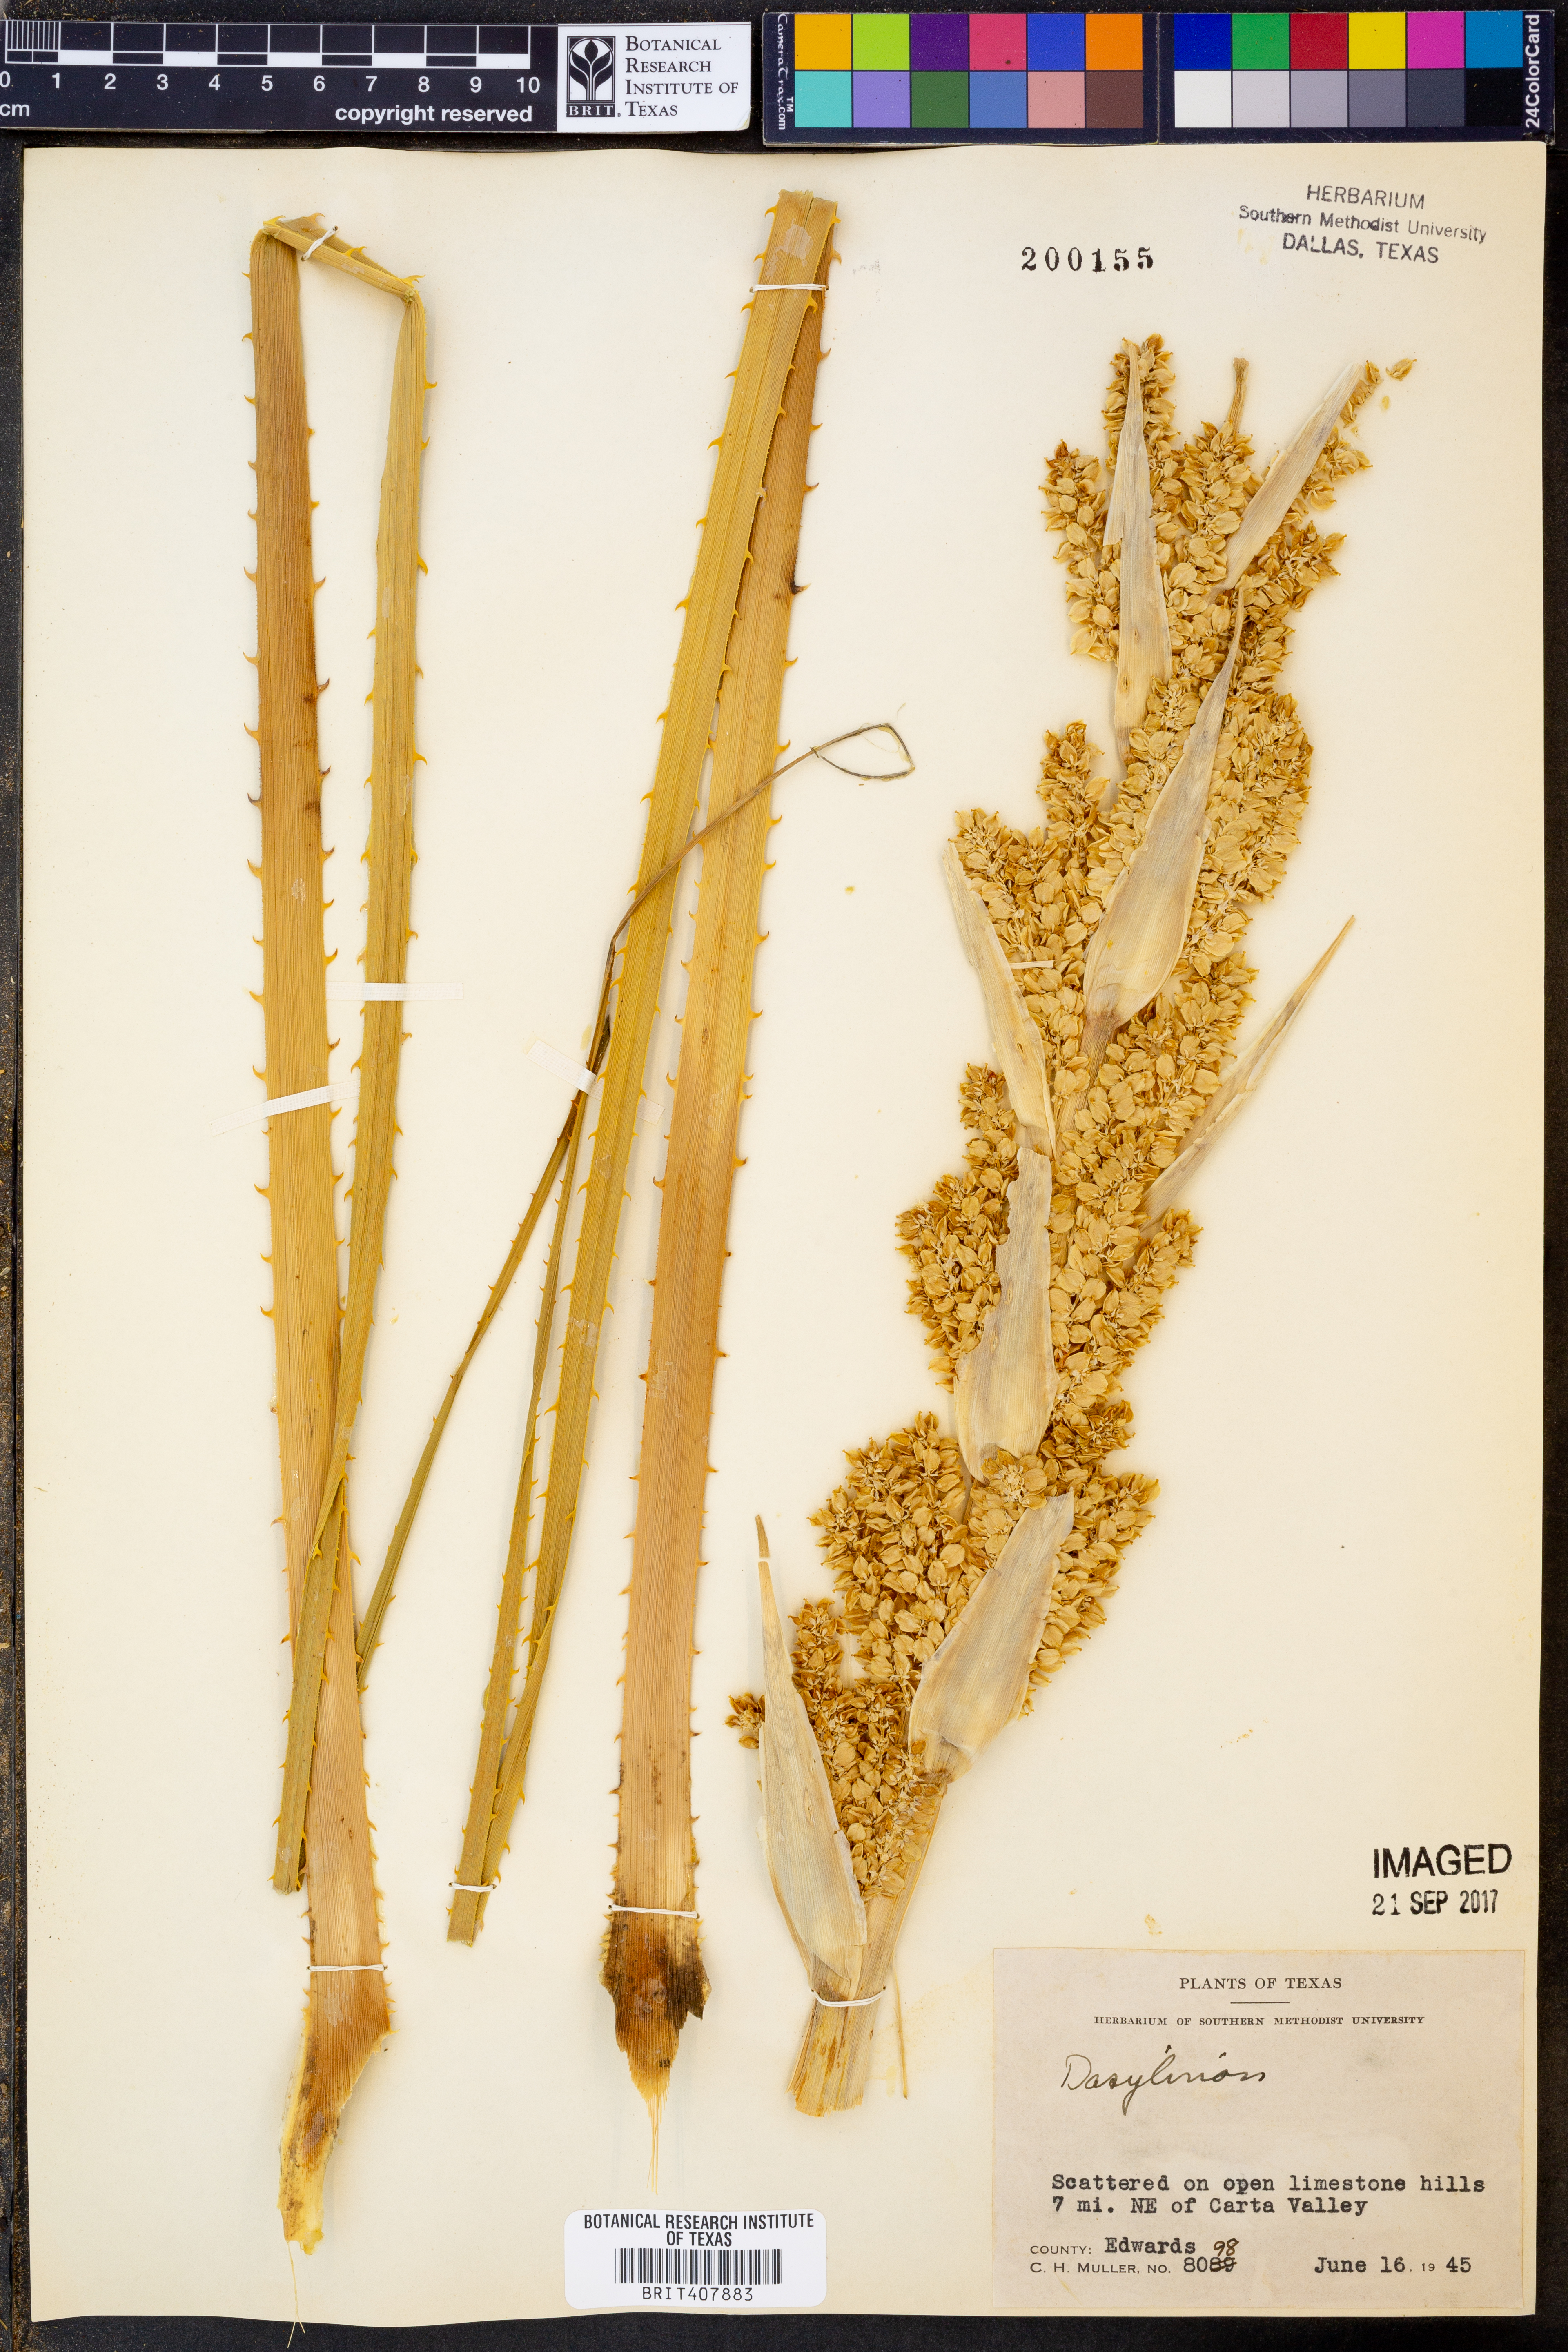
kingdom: Plantae
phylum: Tracheophyta
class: Liliopsida
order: Asparagales
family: Asparagaceae
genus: Dasylirion
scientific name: Dasylirion
